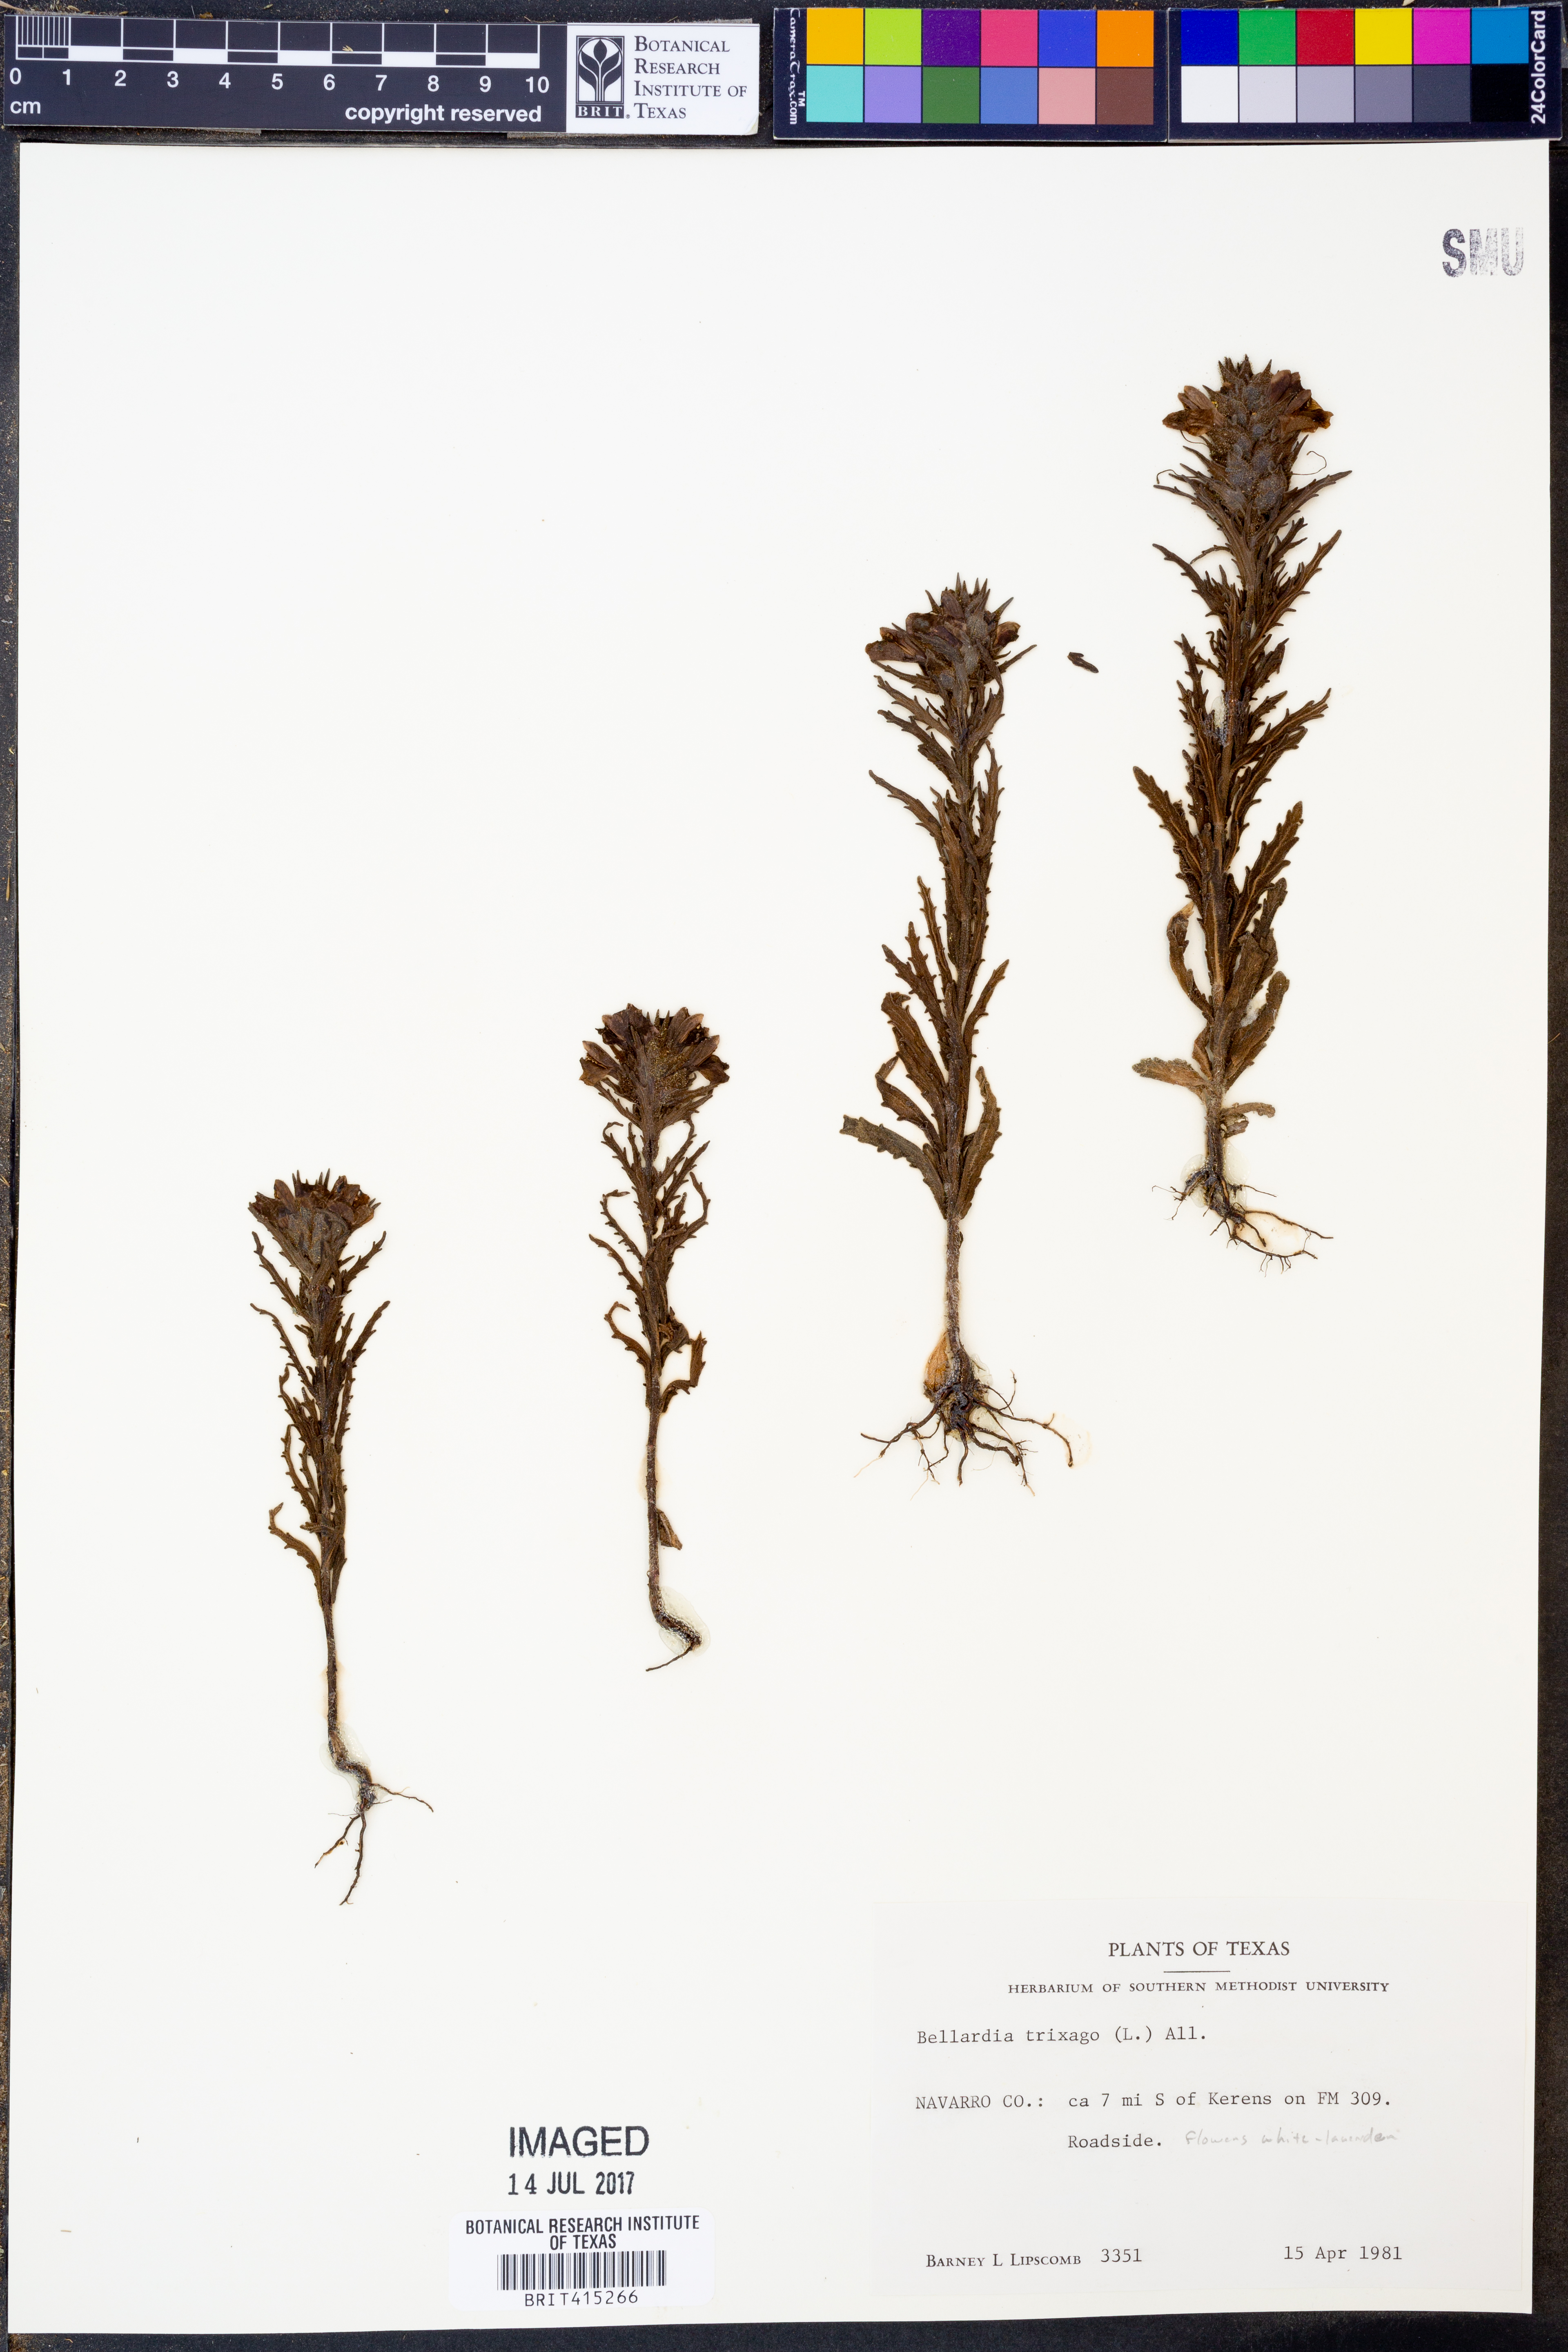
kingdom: Plantae
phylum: Tracheophyta
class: Magnoliopsida
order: Lamiales
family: Orobanchaceae
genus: Bellardia
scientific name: Bellardia trixago
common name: Mediterranean lineseed
